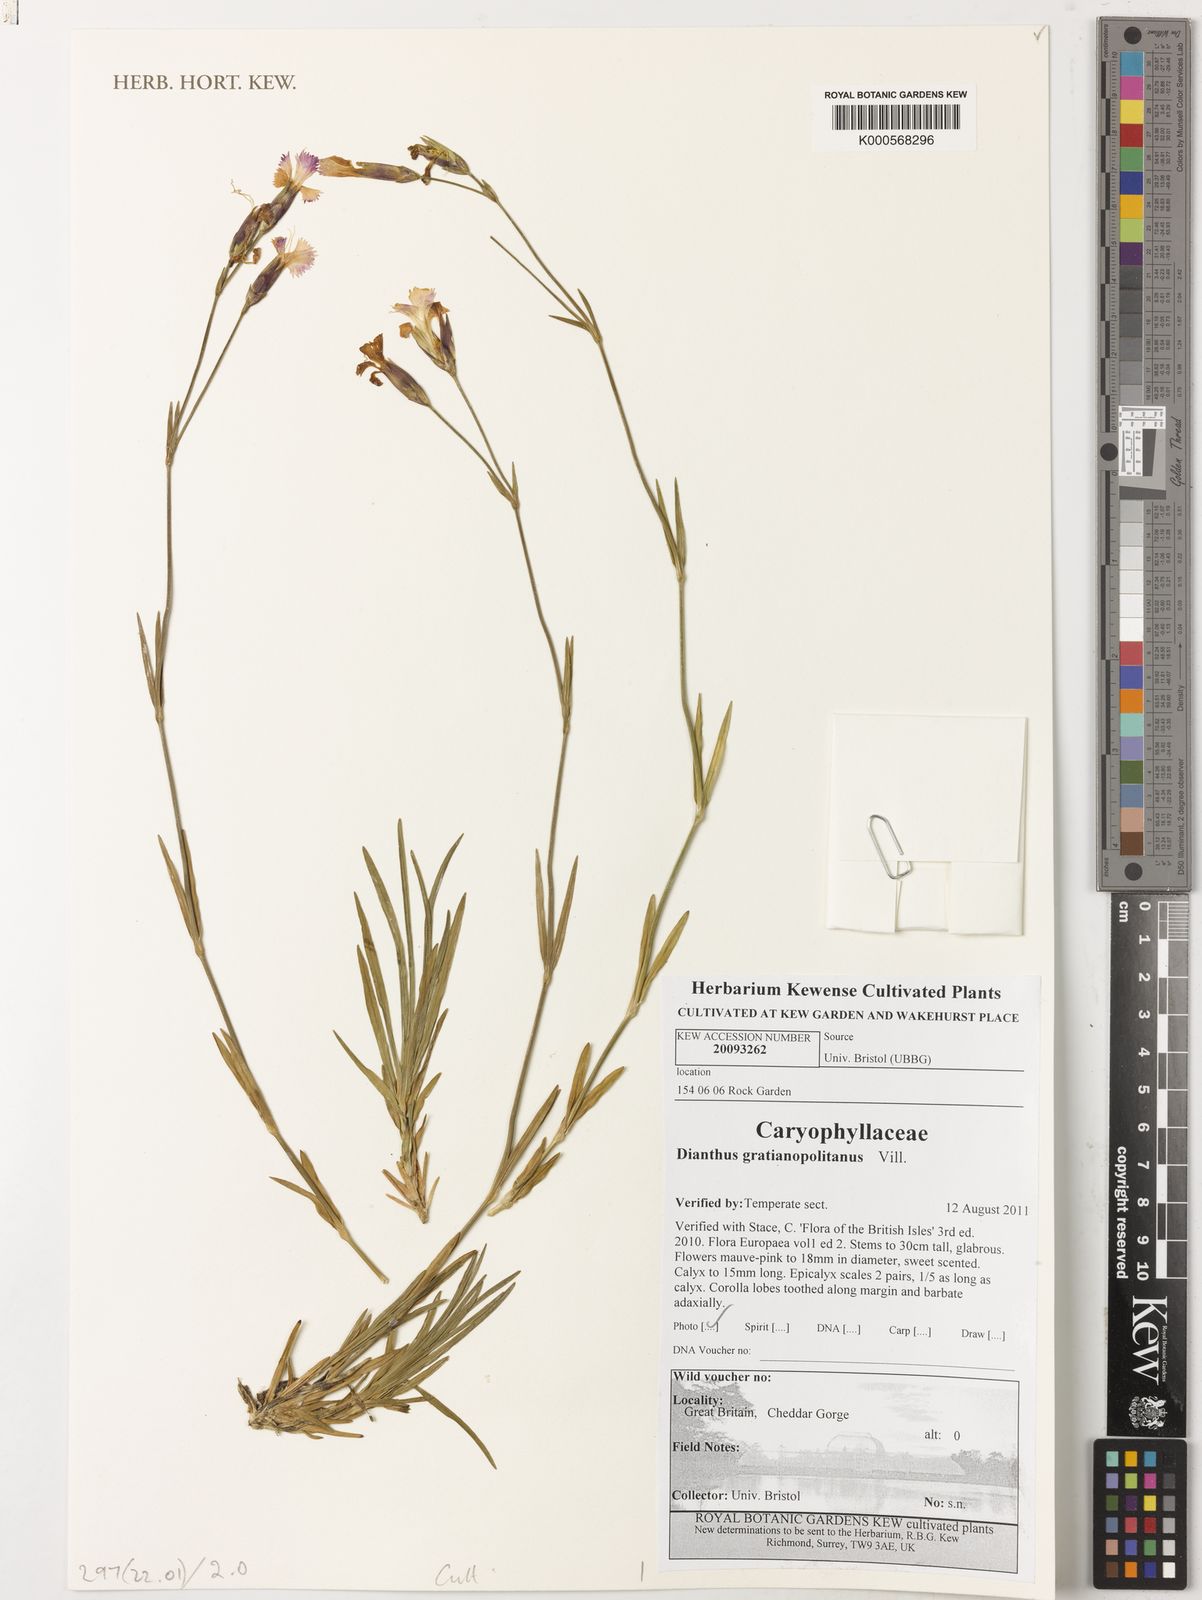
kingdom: Plantae
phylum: Tracheophyta
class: Magnoliopsida
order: Solanales
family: Solanaceae
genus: Solanum
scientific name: Solanum dulcamara
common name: Climbing nightshade
